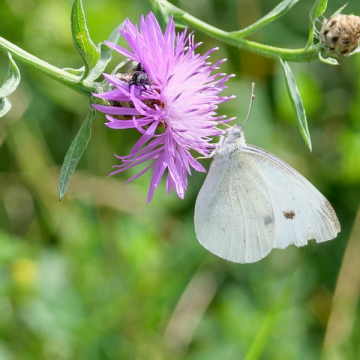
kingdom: Animalia
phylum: Arthropoda
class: Insecta
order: Lepidoptera
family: Pieridae
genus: Pieris
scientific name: Pieris rapae
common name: Cabbage White
